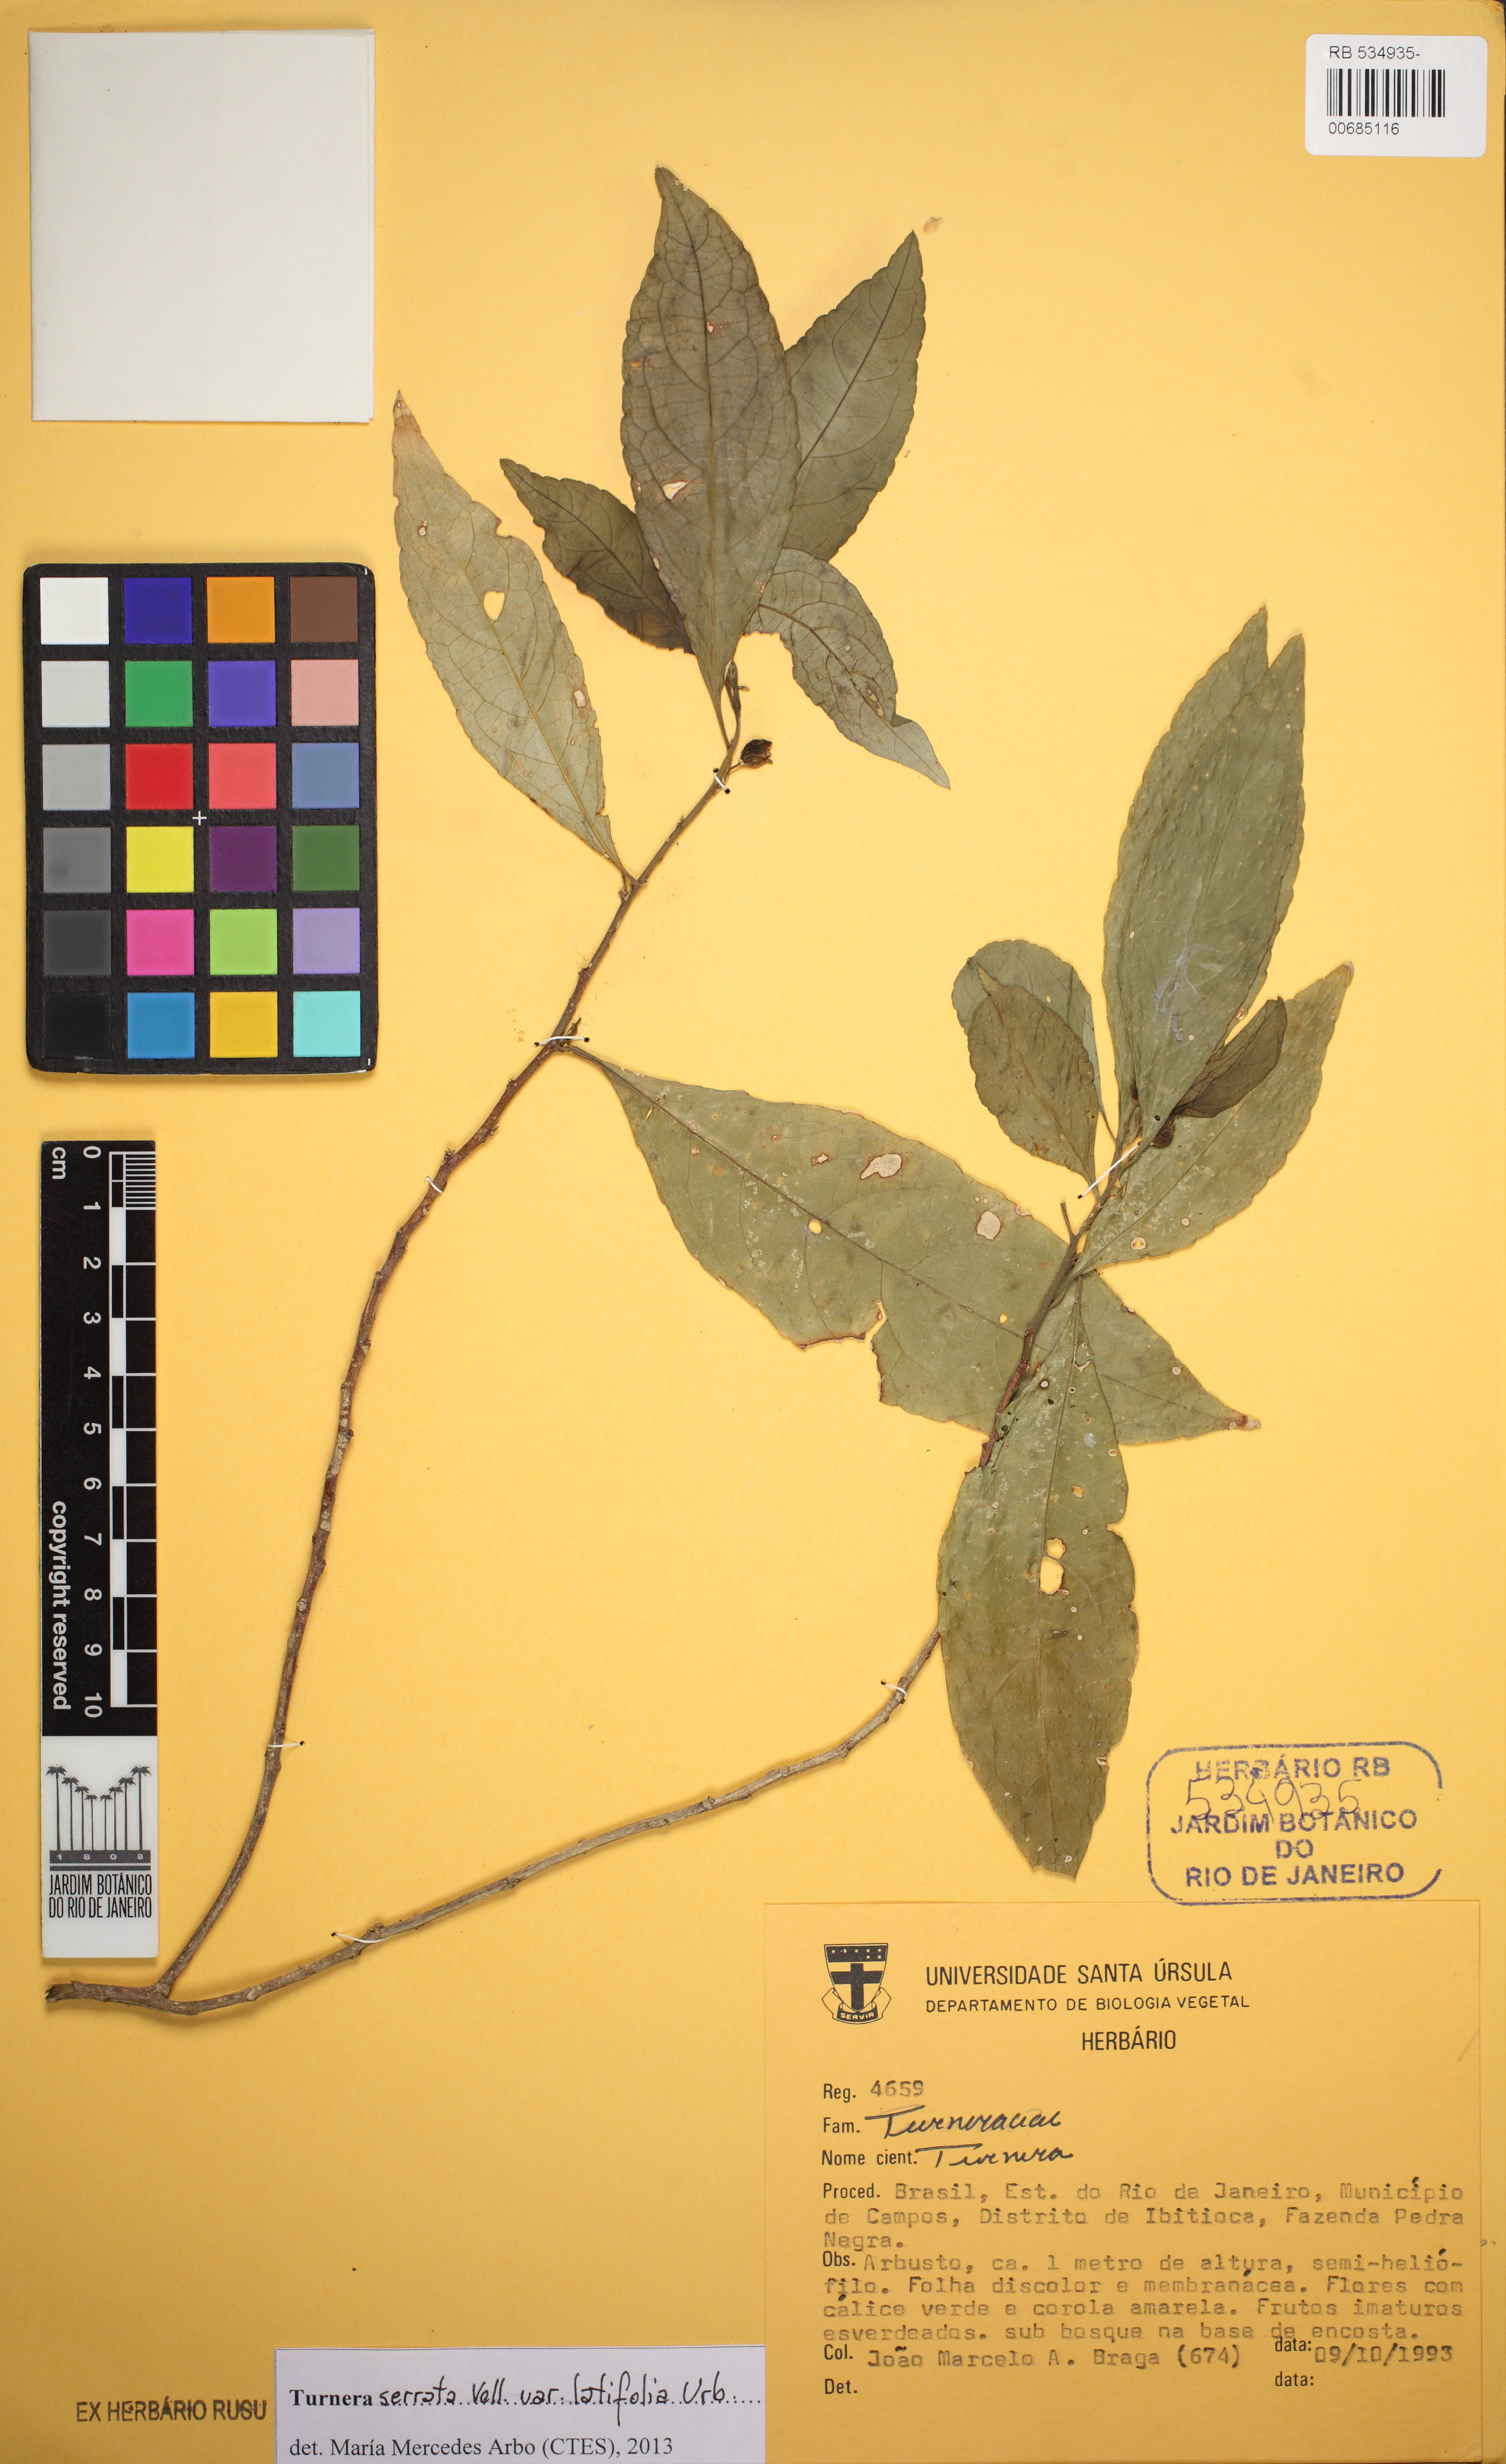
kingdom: Plantae
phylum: Tracheophyta
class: Magnoliopsida
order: Malpighiales
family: Turneraceae
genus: Turnera
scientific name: Turnera serrata
